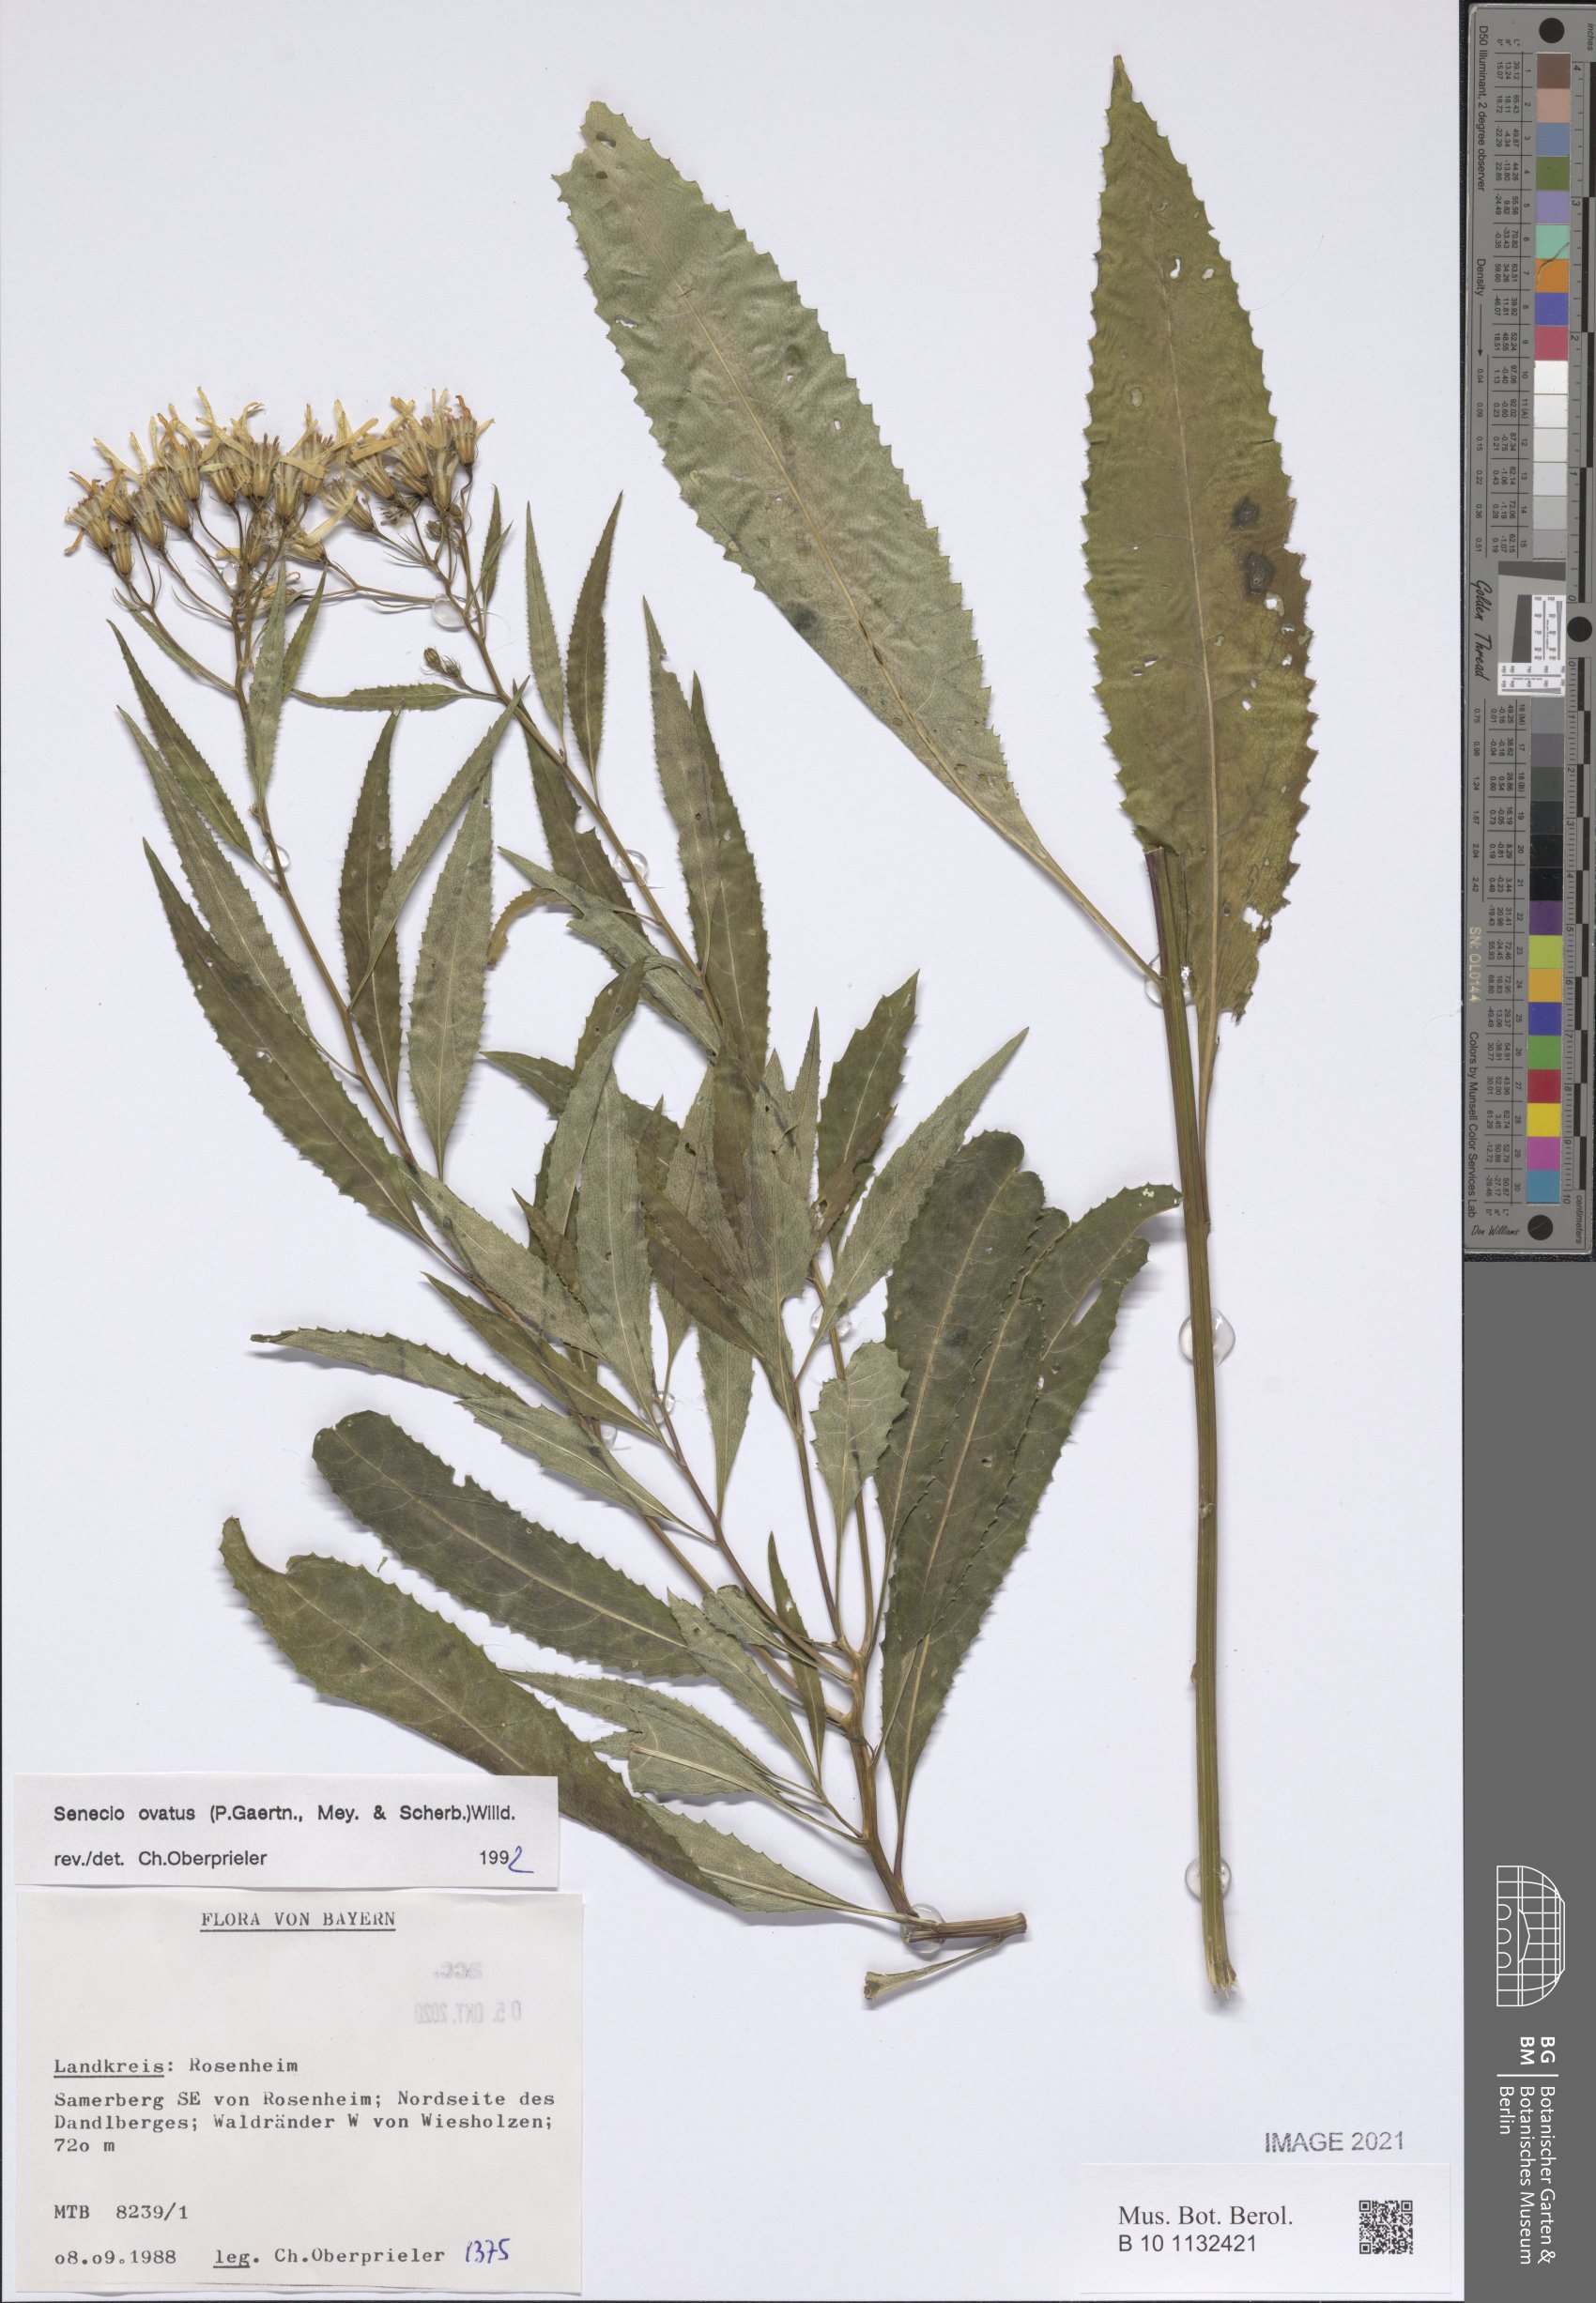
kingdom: Plantae
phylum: Tracheophyta
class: Magnoliopsida
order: Asterales
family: Asteraceae
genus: Senecio
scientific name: Senecio ovatus
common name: Wood ragwort
